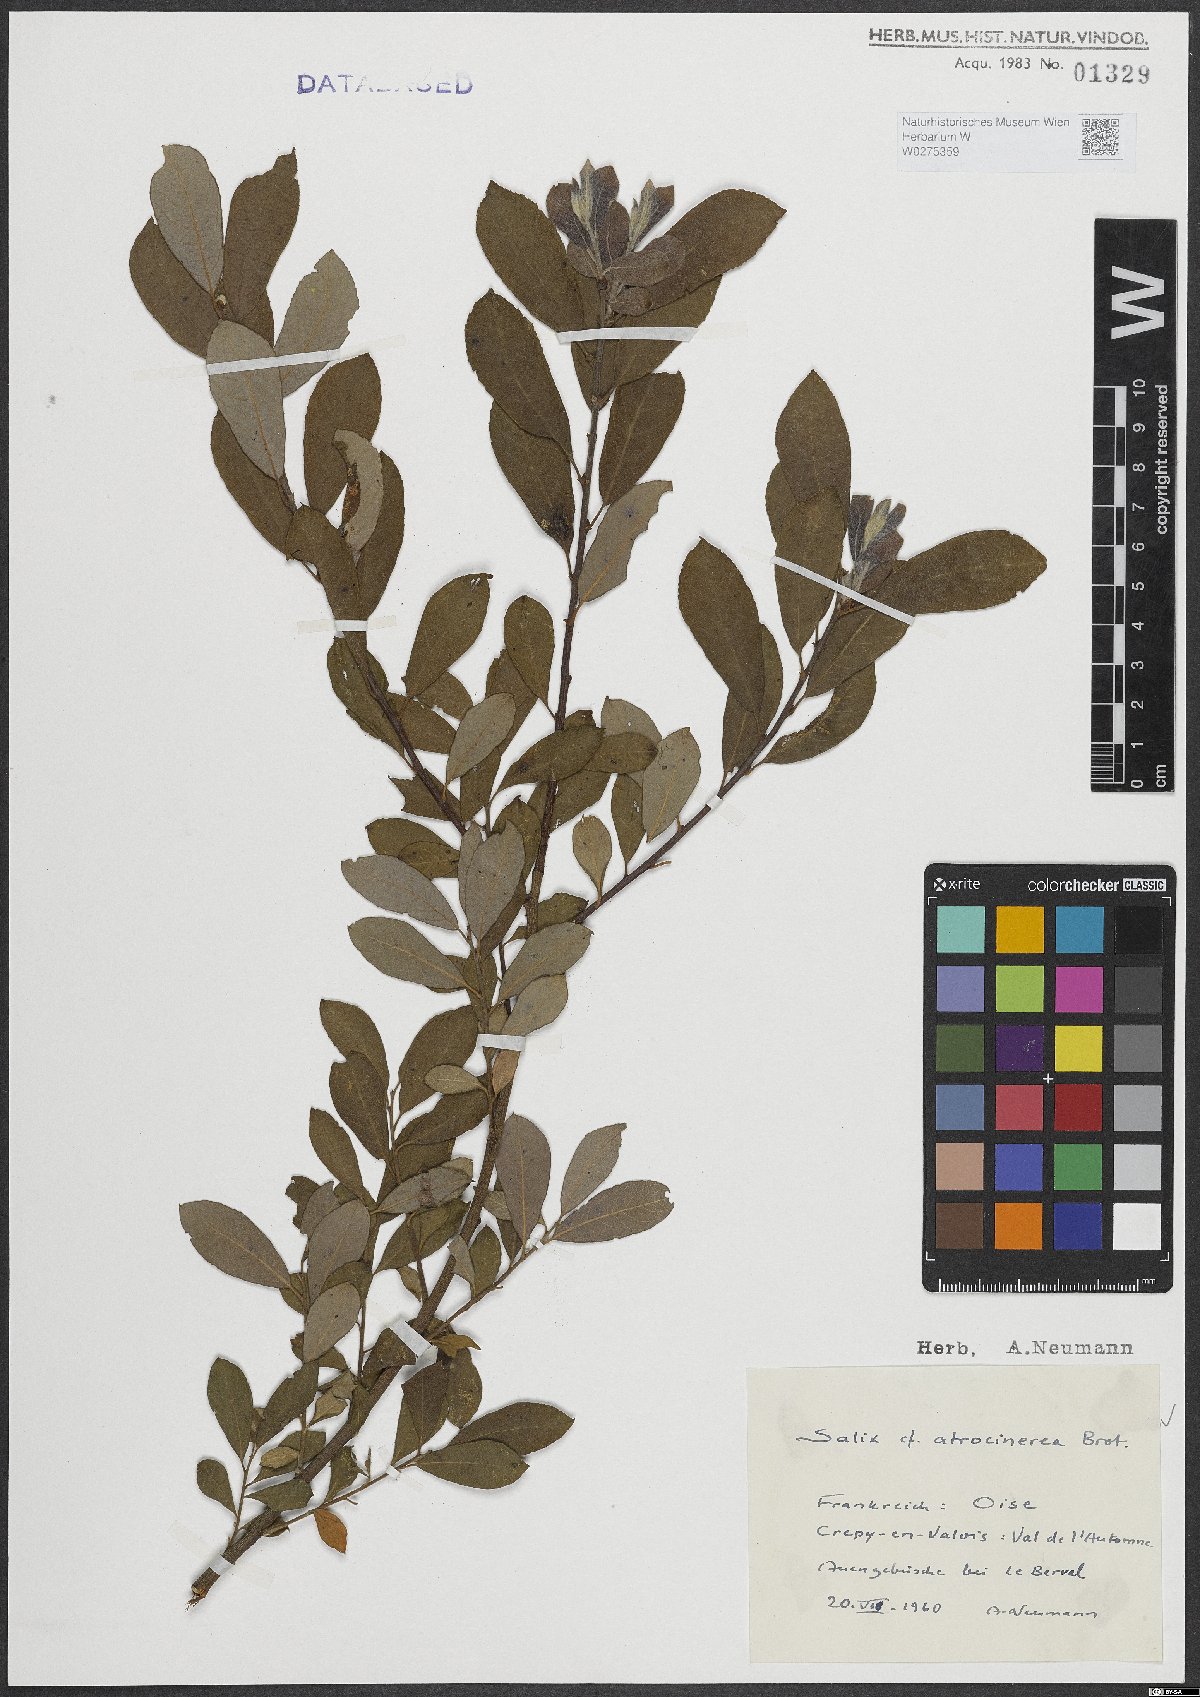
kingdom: Plantae
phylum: Tracheophyta
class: Magnoliopsida
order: Malpighiales
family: Salicaceae
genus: Salix
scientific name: Salix atrocinerea
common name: Rusty willow
